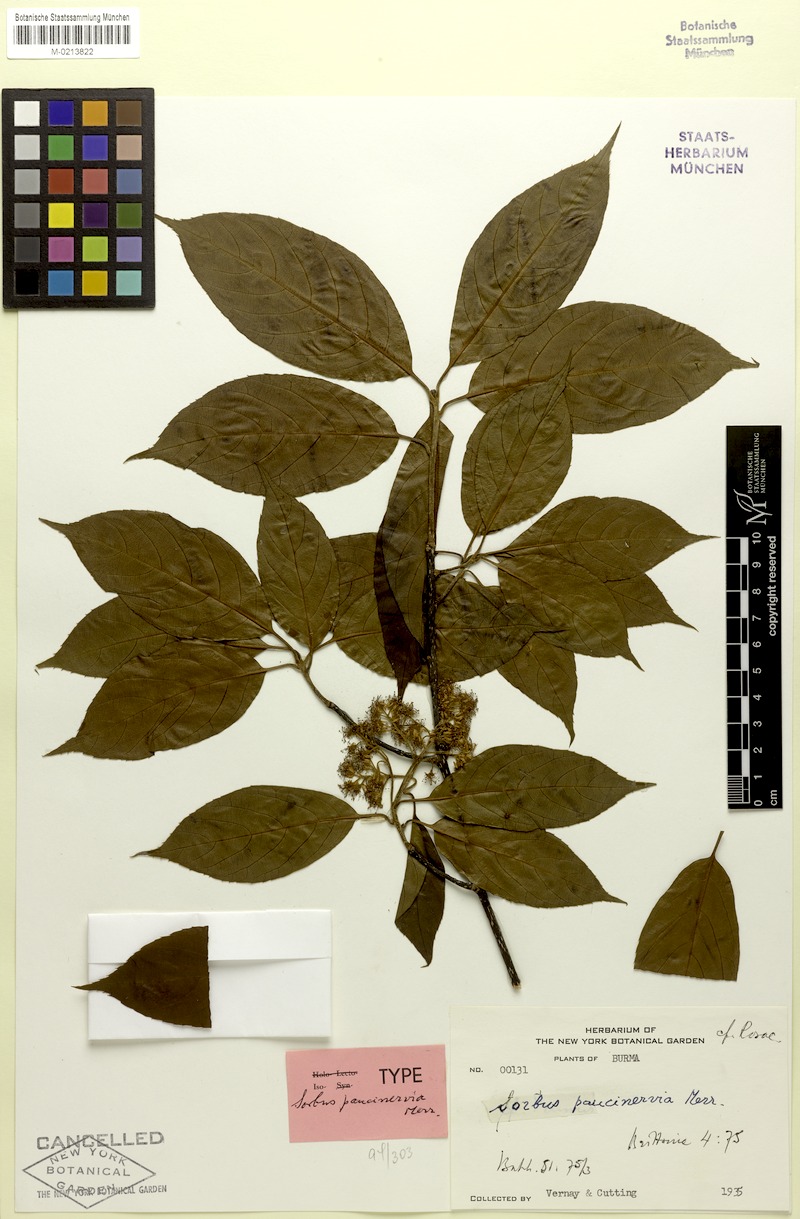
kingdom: Plantae
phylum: Tracheophyta
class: Magnoliopsida
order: Rosales
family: Rosaceae
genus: Sorbus
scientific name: Sorbus paucinervia
